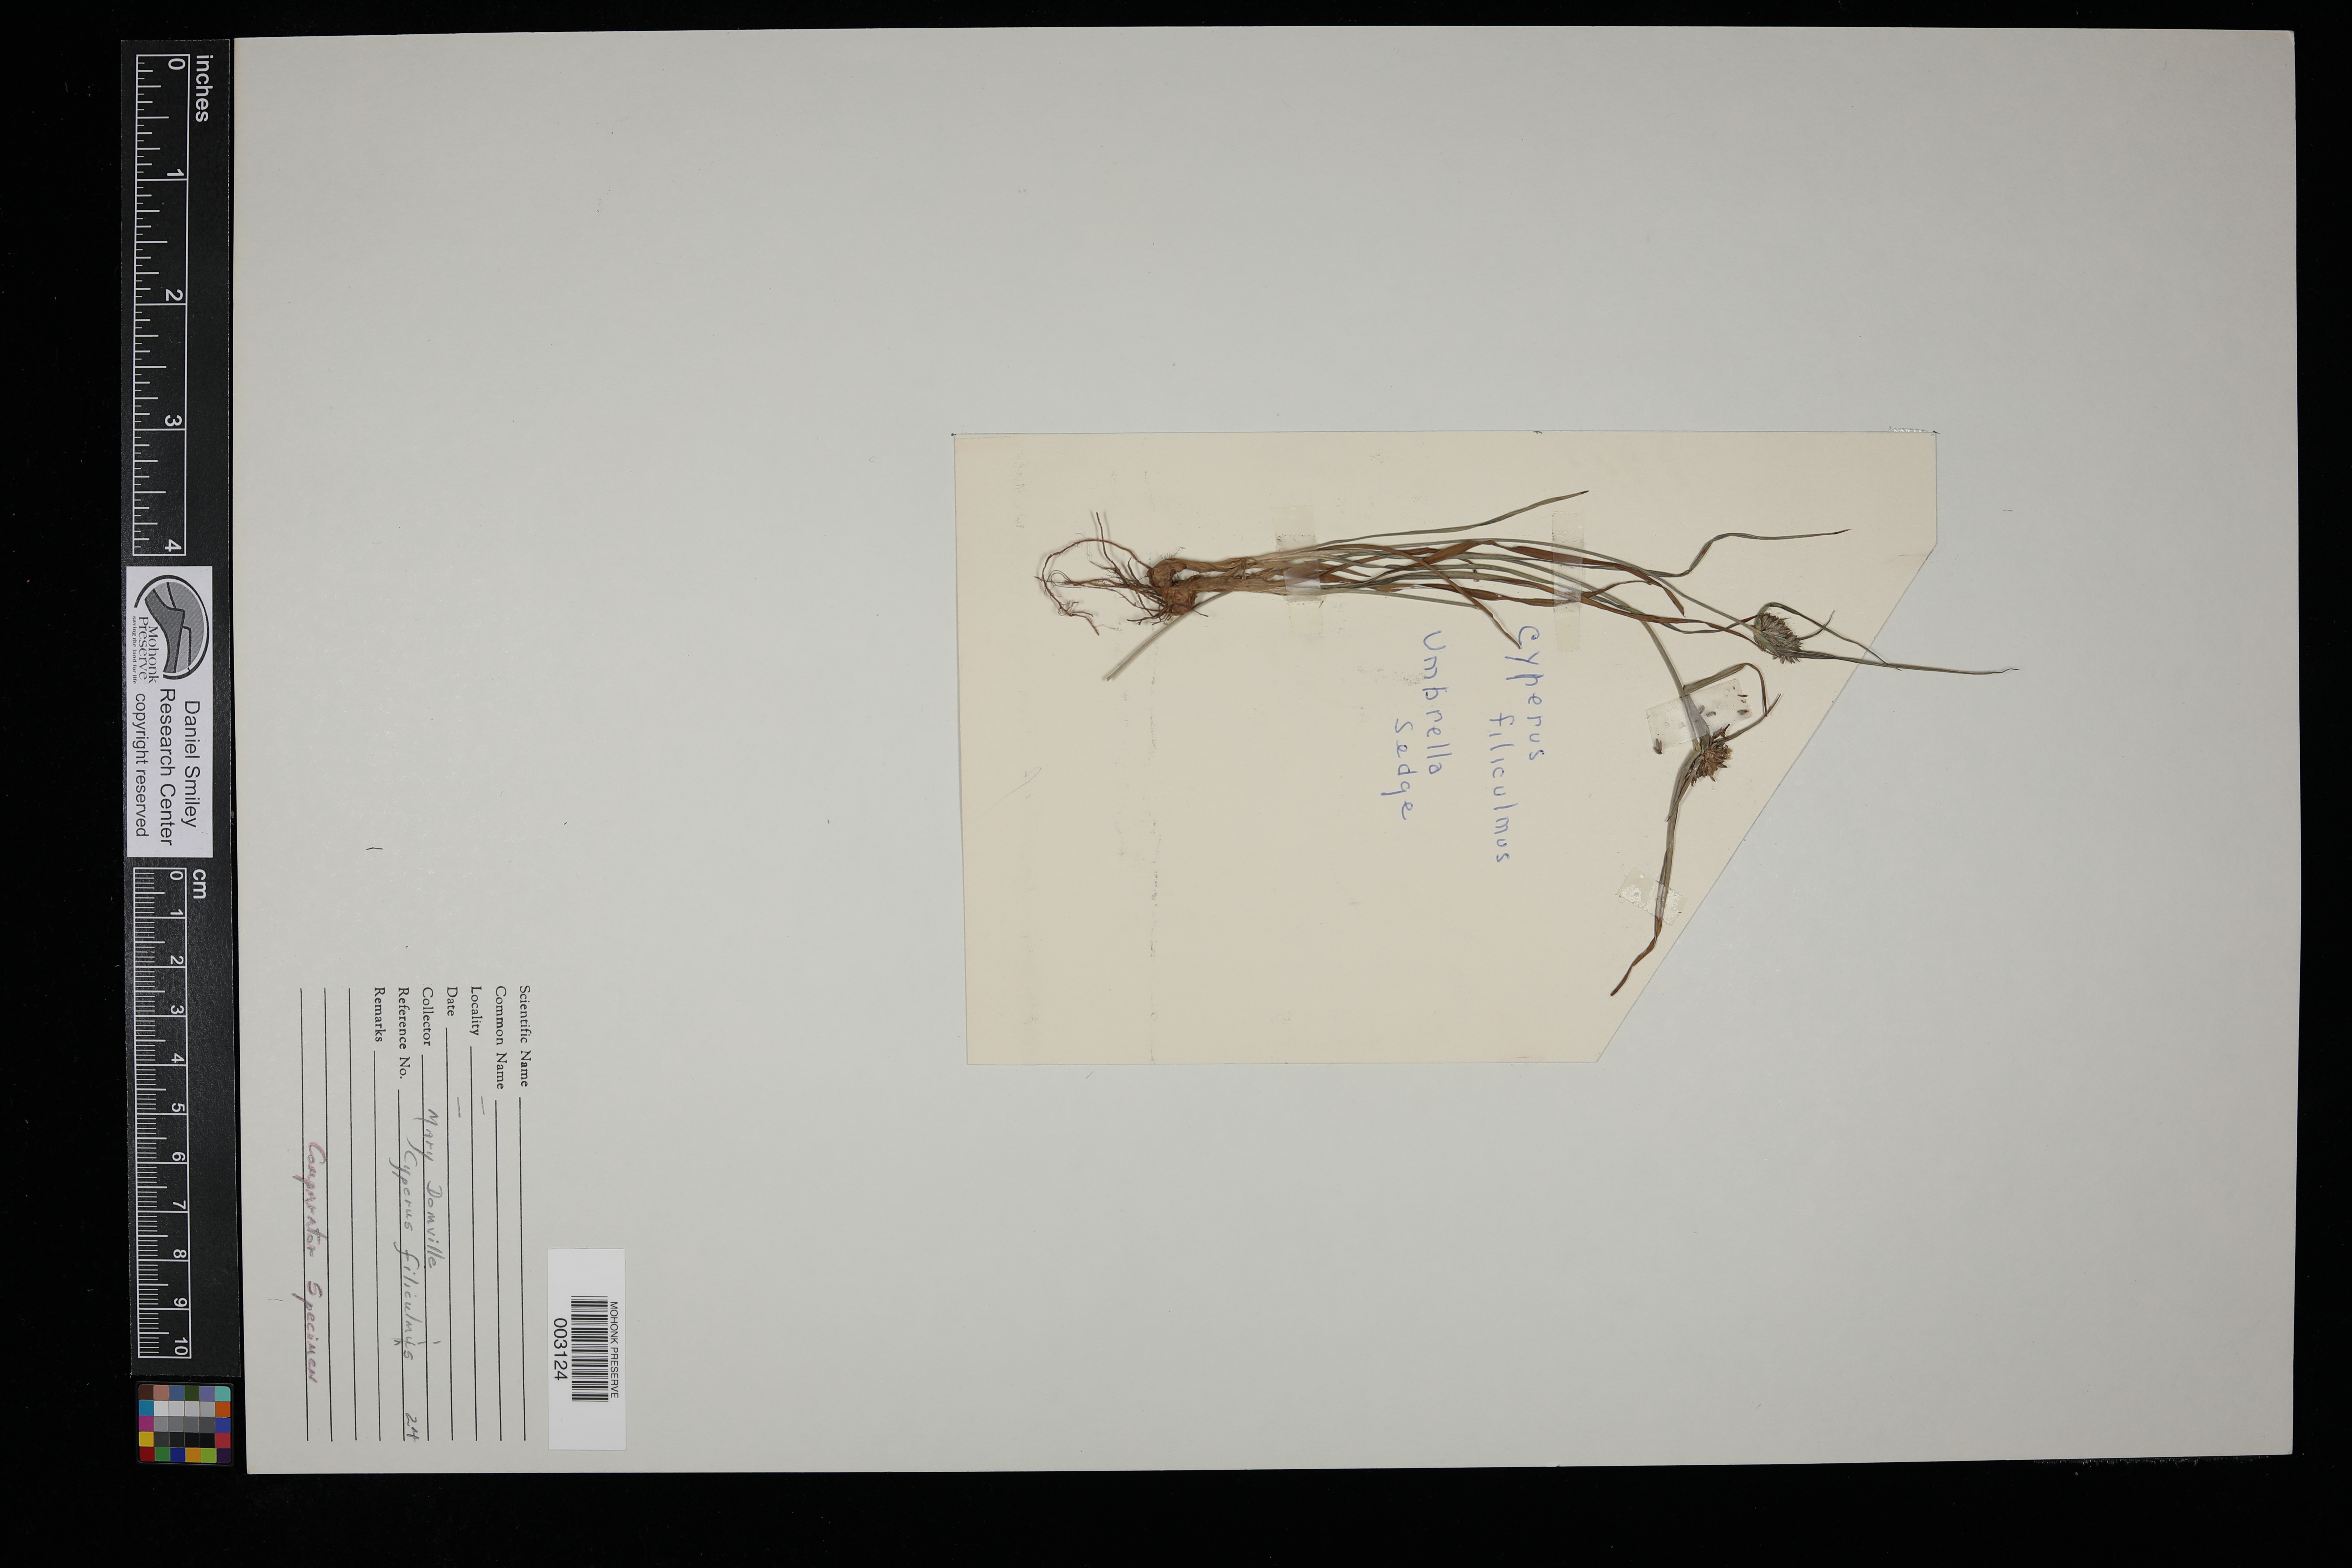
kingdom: Plantae
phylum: Tracheophyta
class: Liliopsida
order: Poales
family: Cyperaceae
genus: Cyperus
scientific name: Cyperus filiculmis
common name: Slender sand sedge
